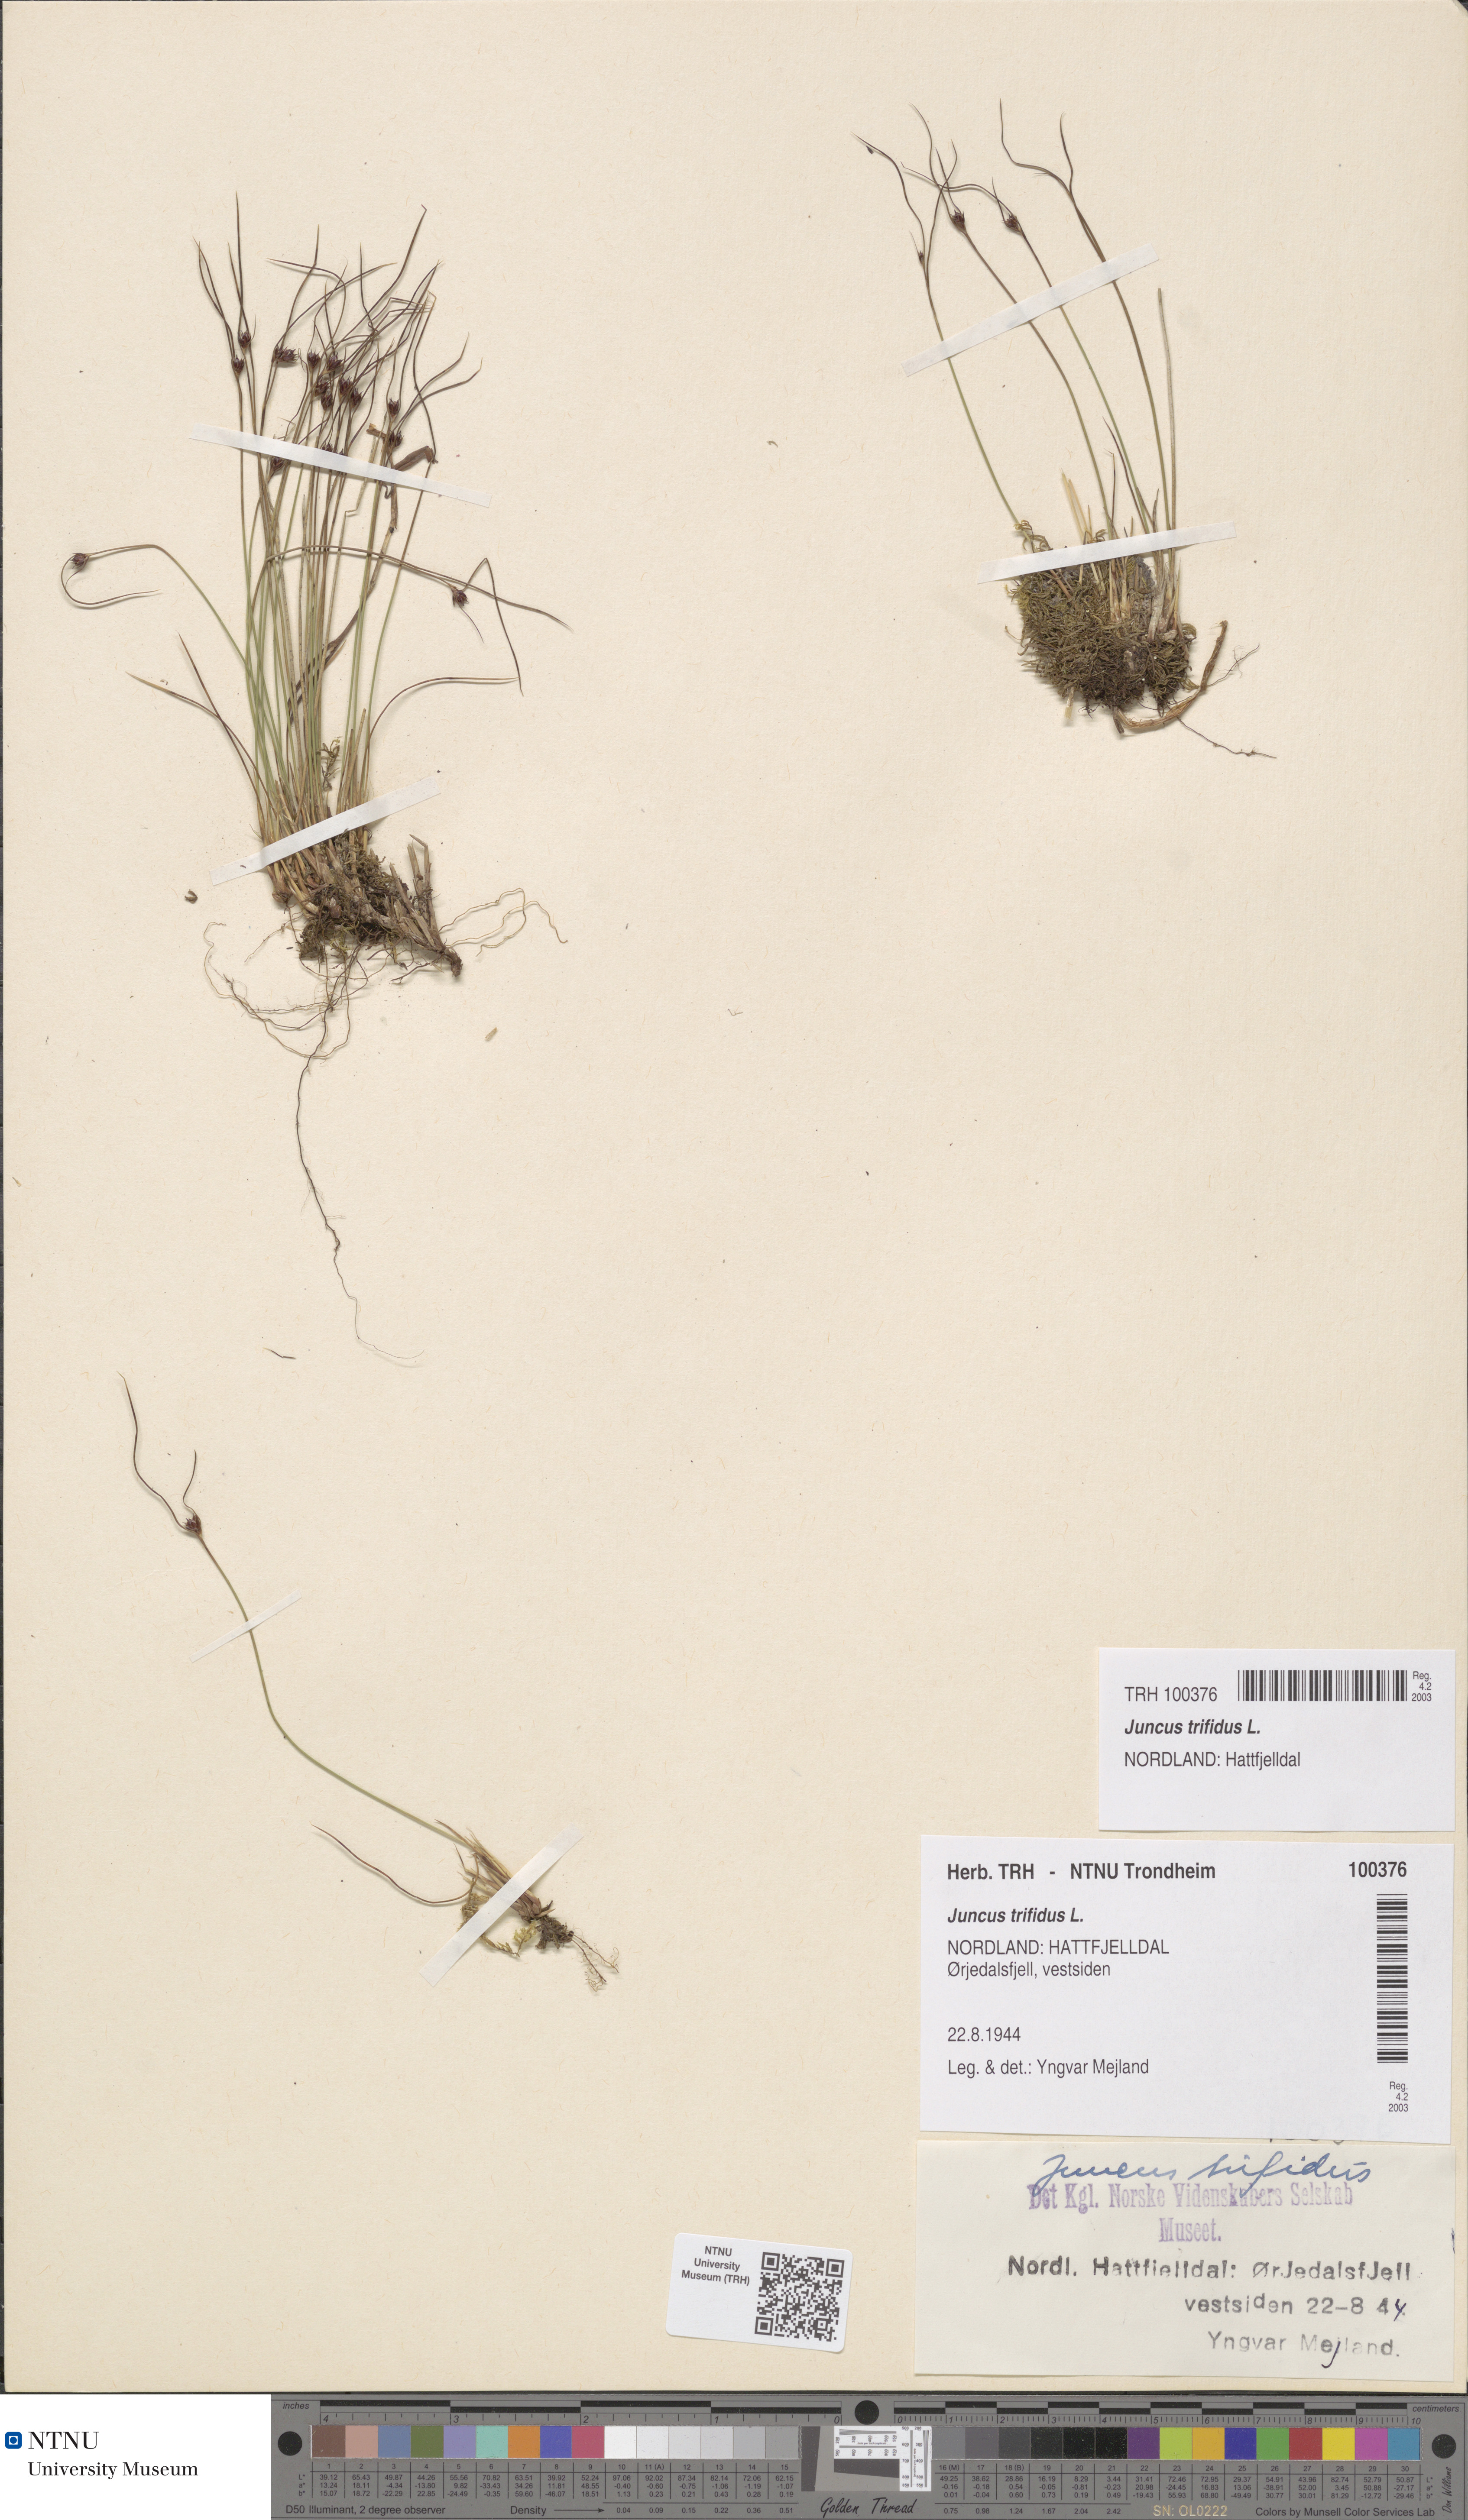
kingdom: Plantae
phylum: Tracheophyta
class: Liliopsida
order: Poales
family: Juncaceae
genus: Oreojuncus
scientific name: Oreojuncus trifidus
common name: Highland rush
